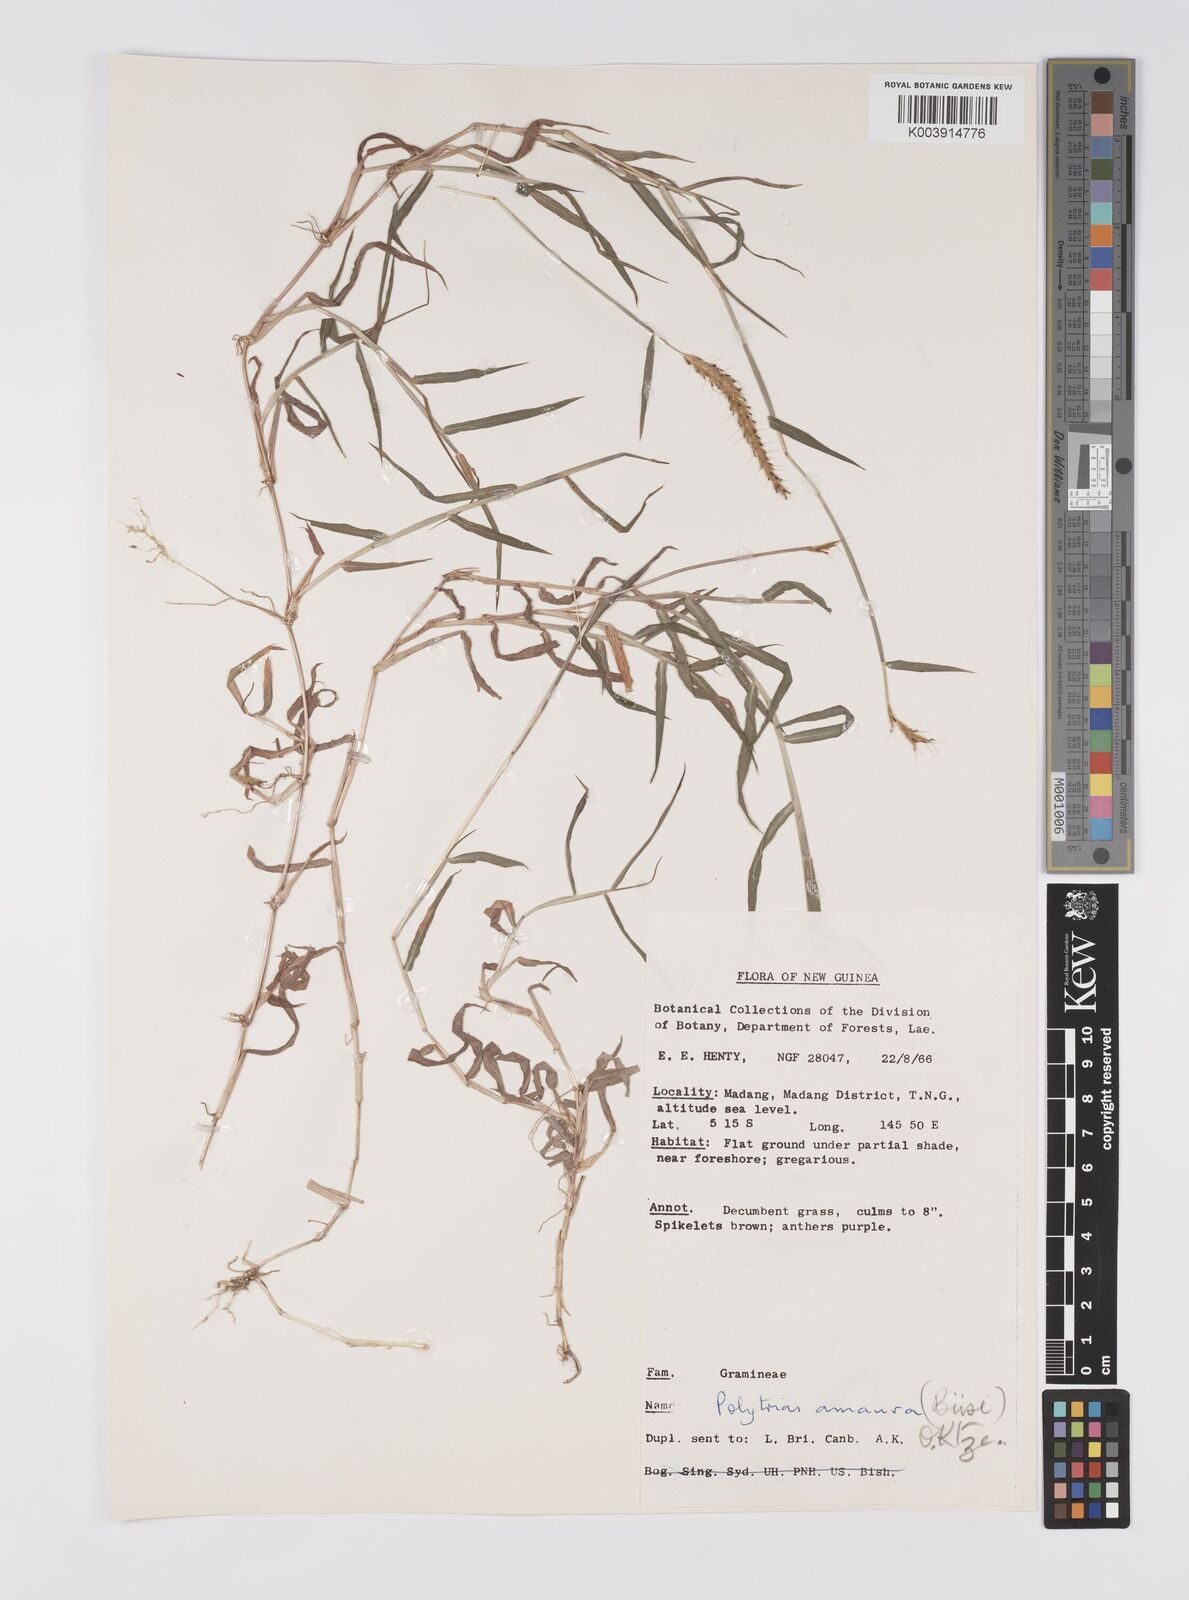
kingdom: Plantae
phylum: Tracheophyta
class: Liliopsida
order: Poales
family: Poaceae
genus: Polytrias
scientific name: Polytrias indica
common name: Indian murainagrass
